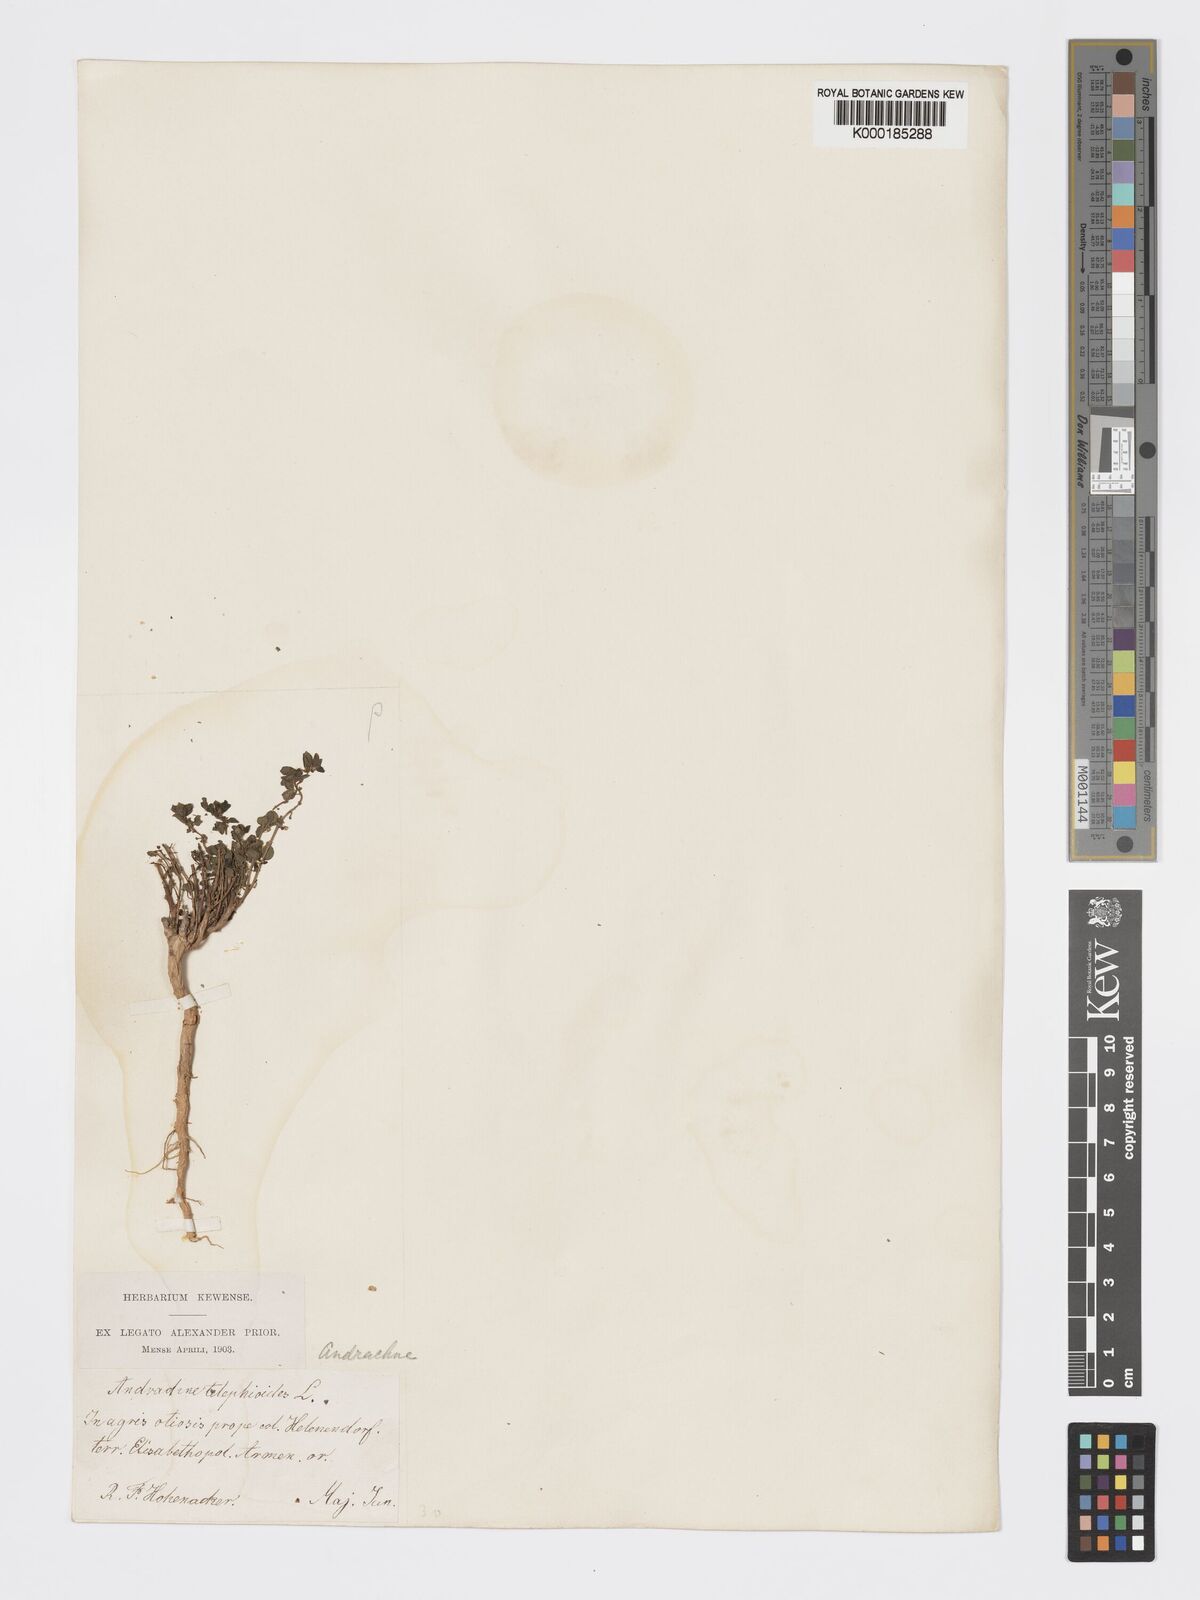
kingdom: Plantae
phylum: Tracheophyta
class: Magnoliopsida
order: Malpighiales
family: Phyllanthaceae
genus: Andrachne
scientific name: Andrachne telephioides
